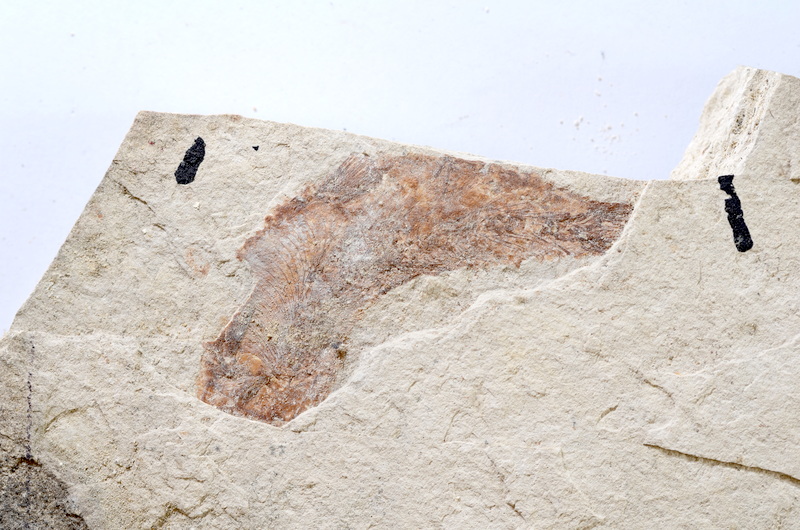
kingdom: Animalia
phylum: Chordata
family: Ascalaboidae
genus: Tharsis
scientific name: Tharsis dubius
